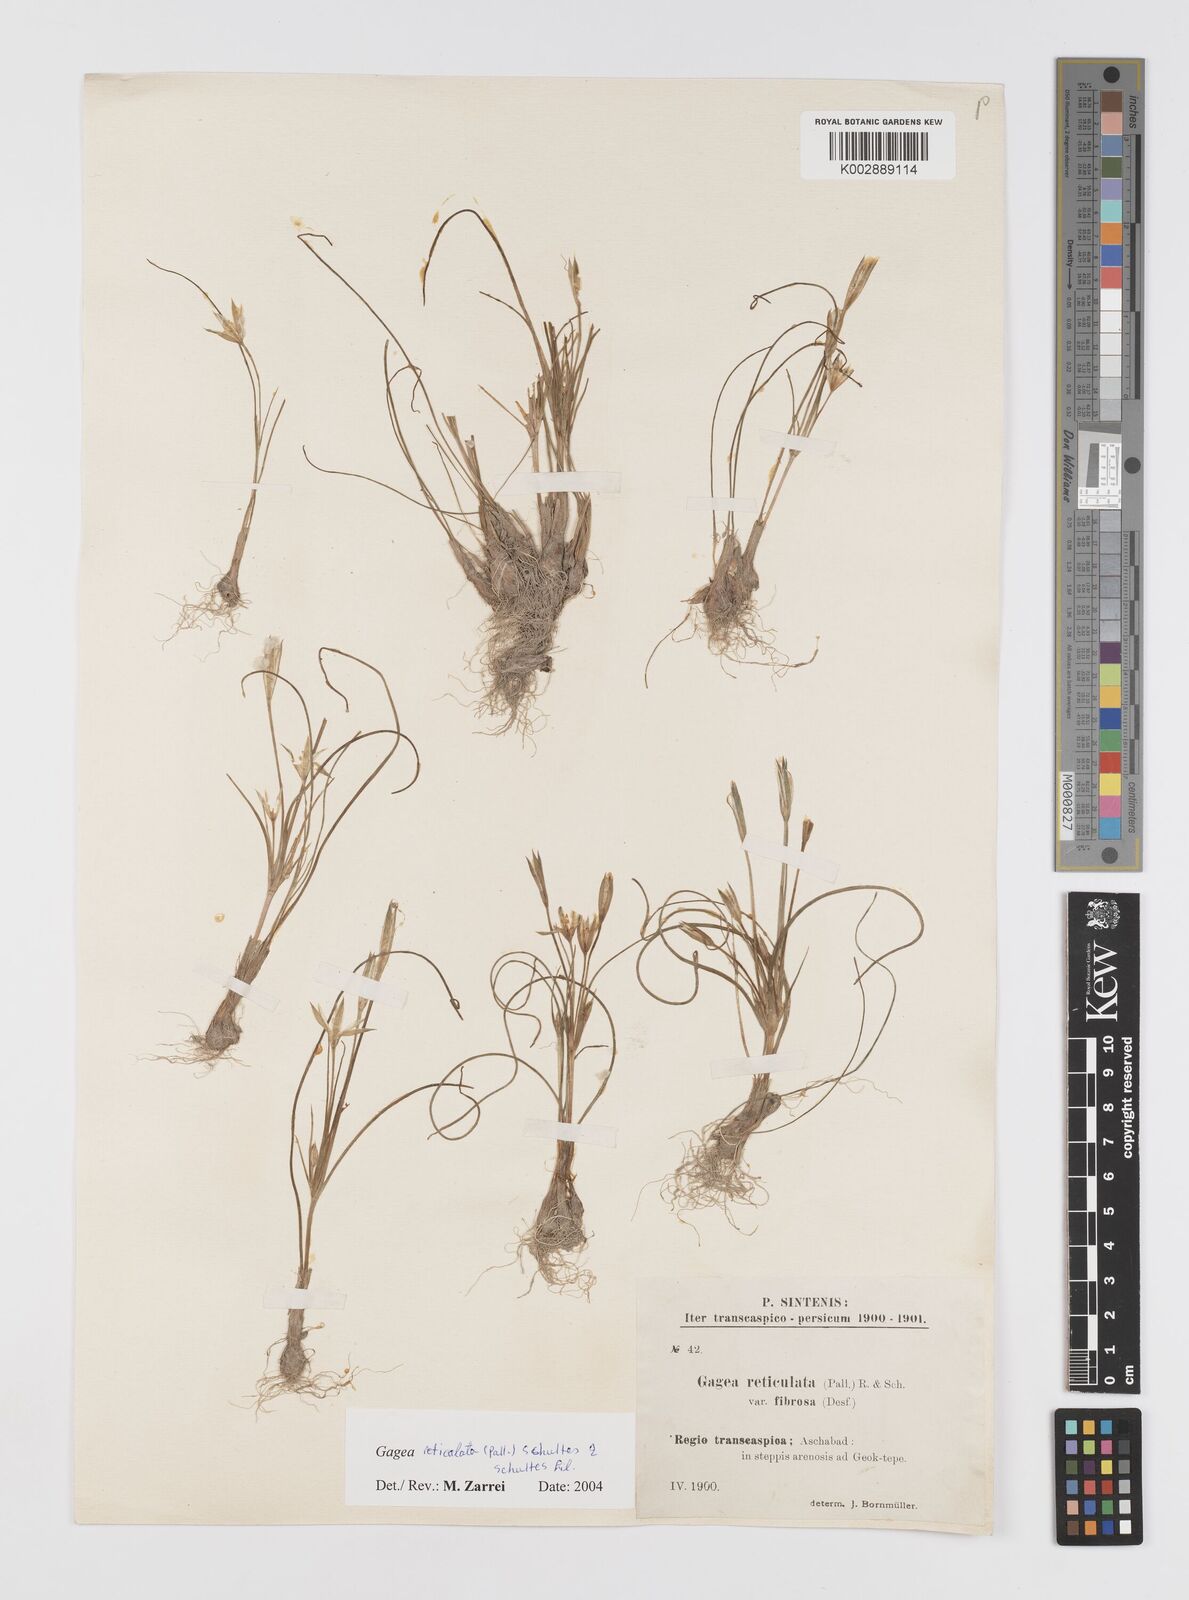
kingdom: Plantae
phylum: Tracheophyta
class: Liliopsida
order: Liliales
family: Liliaceae
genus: Gagea
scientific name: Gagea reticulata
